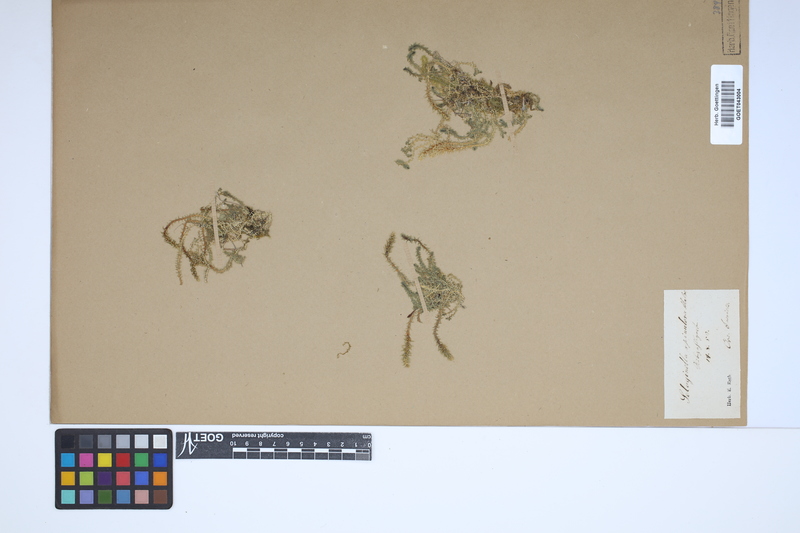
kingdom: Plantae
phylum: Tracheophyta
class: Lycopodiopsida
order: Selaginellales
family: Selaginellaceae
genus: Selaginella
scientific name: Selaginella selaginoides
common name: Prickly mountain-moss
